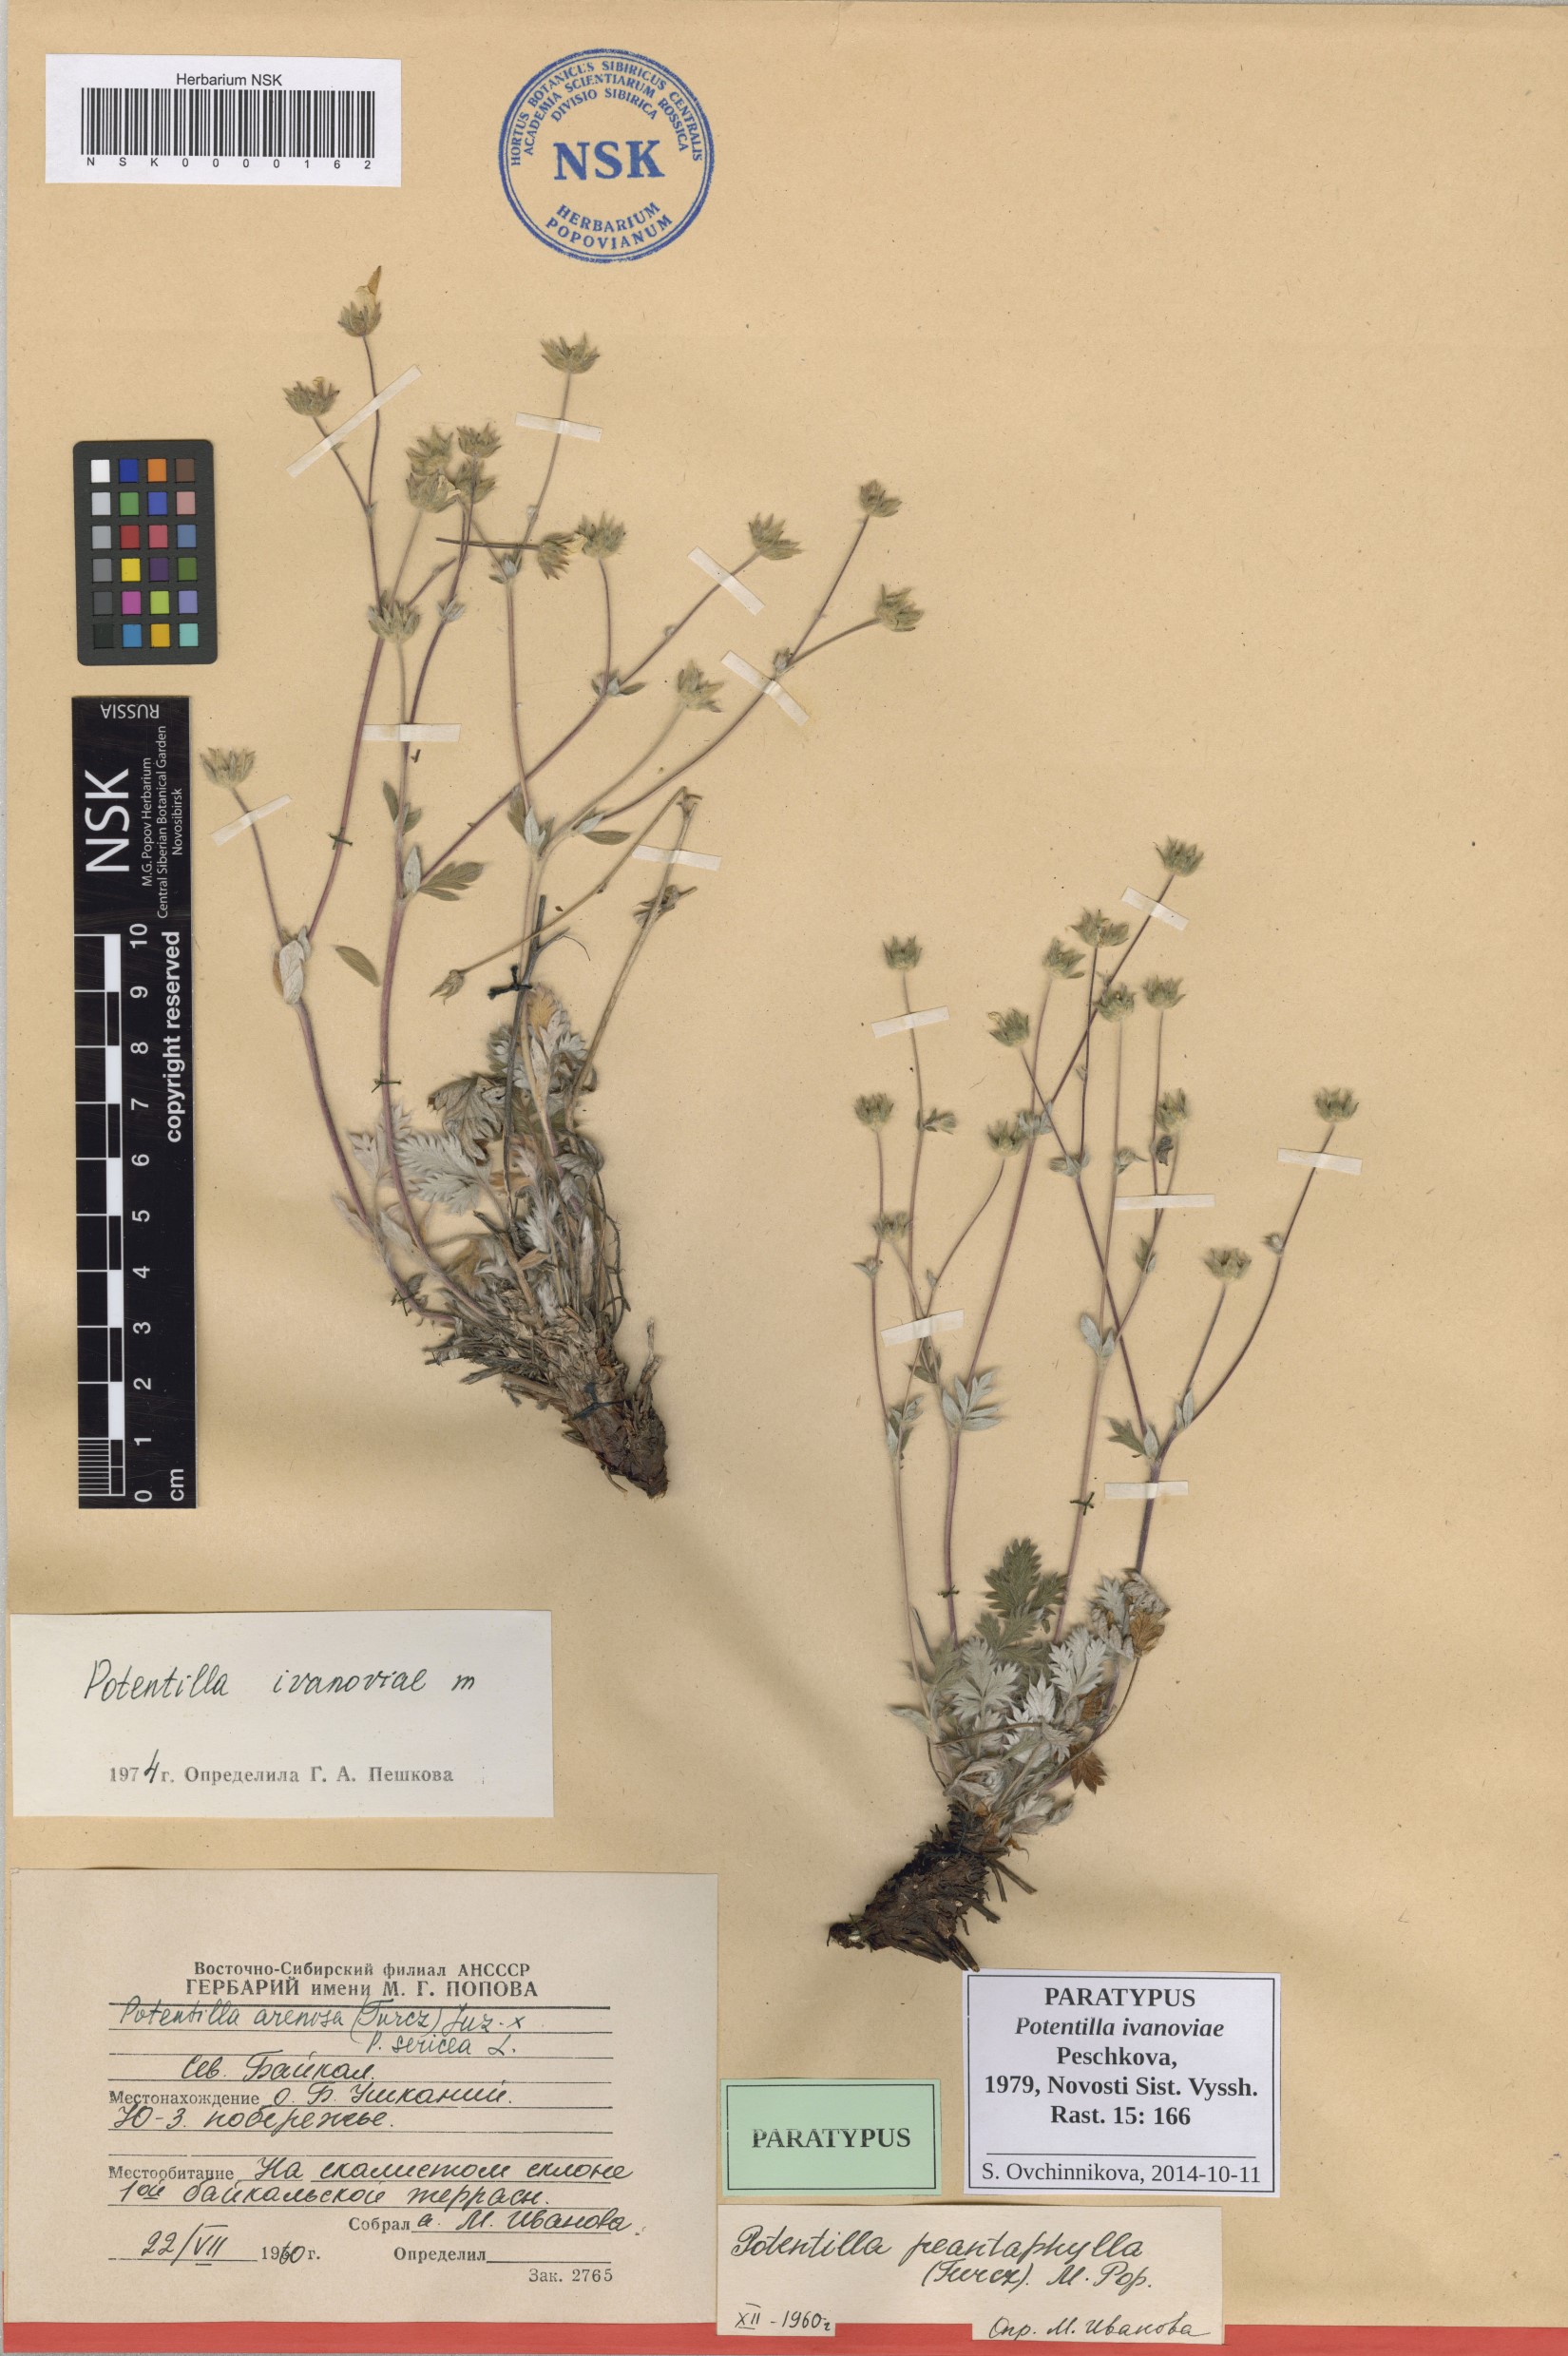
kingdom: Plantae
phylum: Tracheophyta
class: Magnoliopsida
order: Rosales
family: Rosaceae
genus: Potentilla
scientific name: Potentilla ivanoviae
